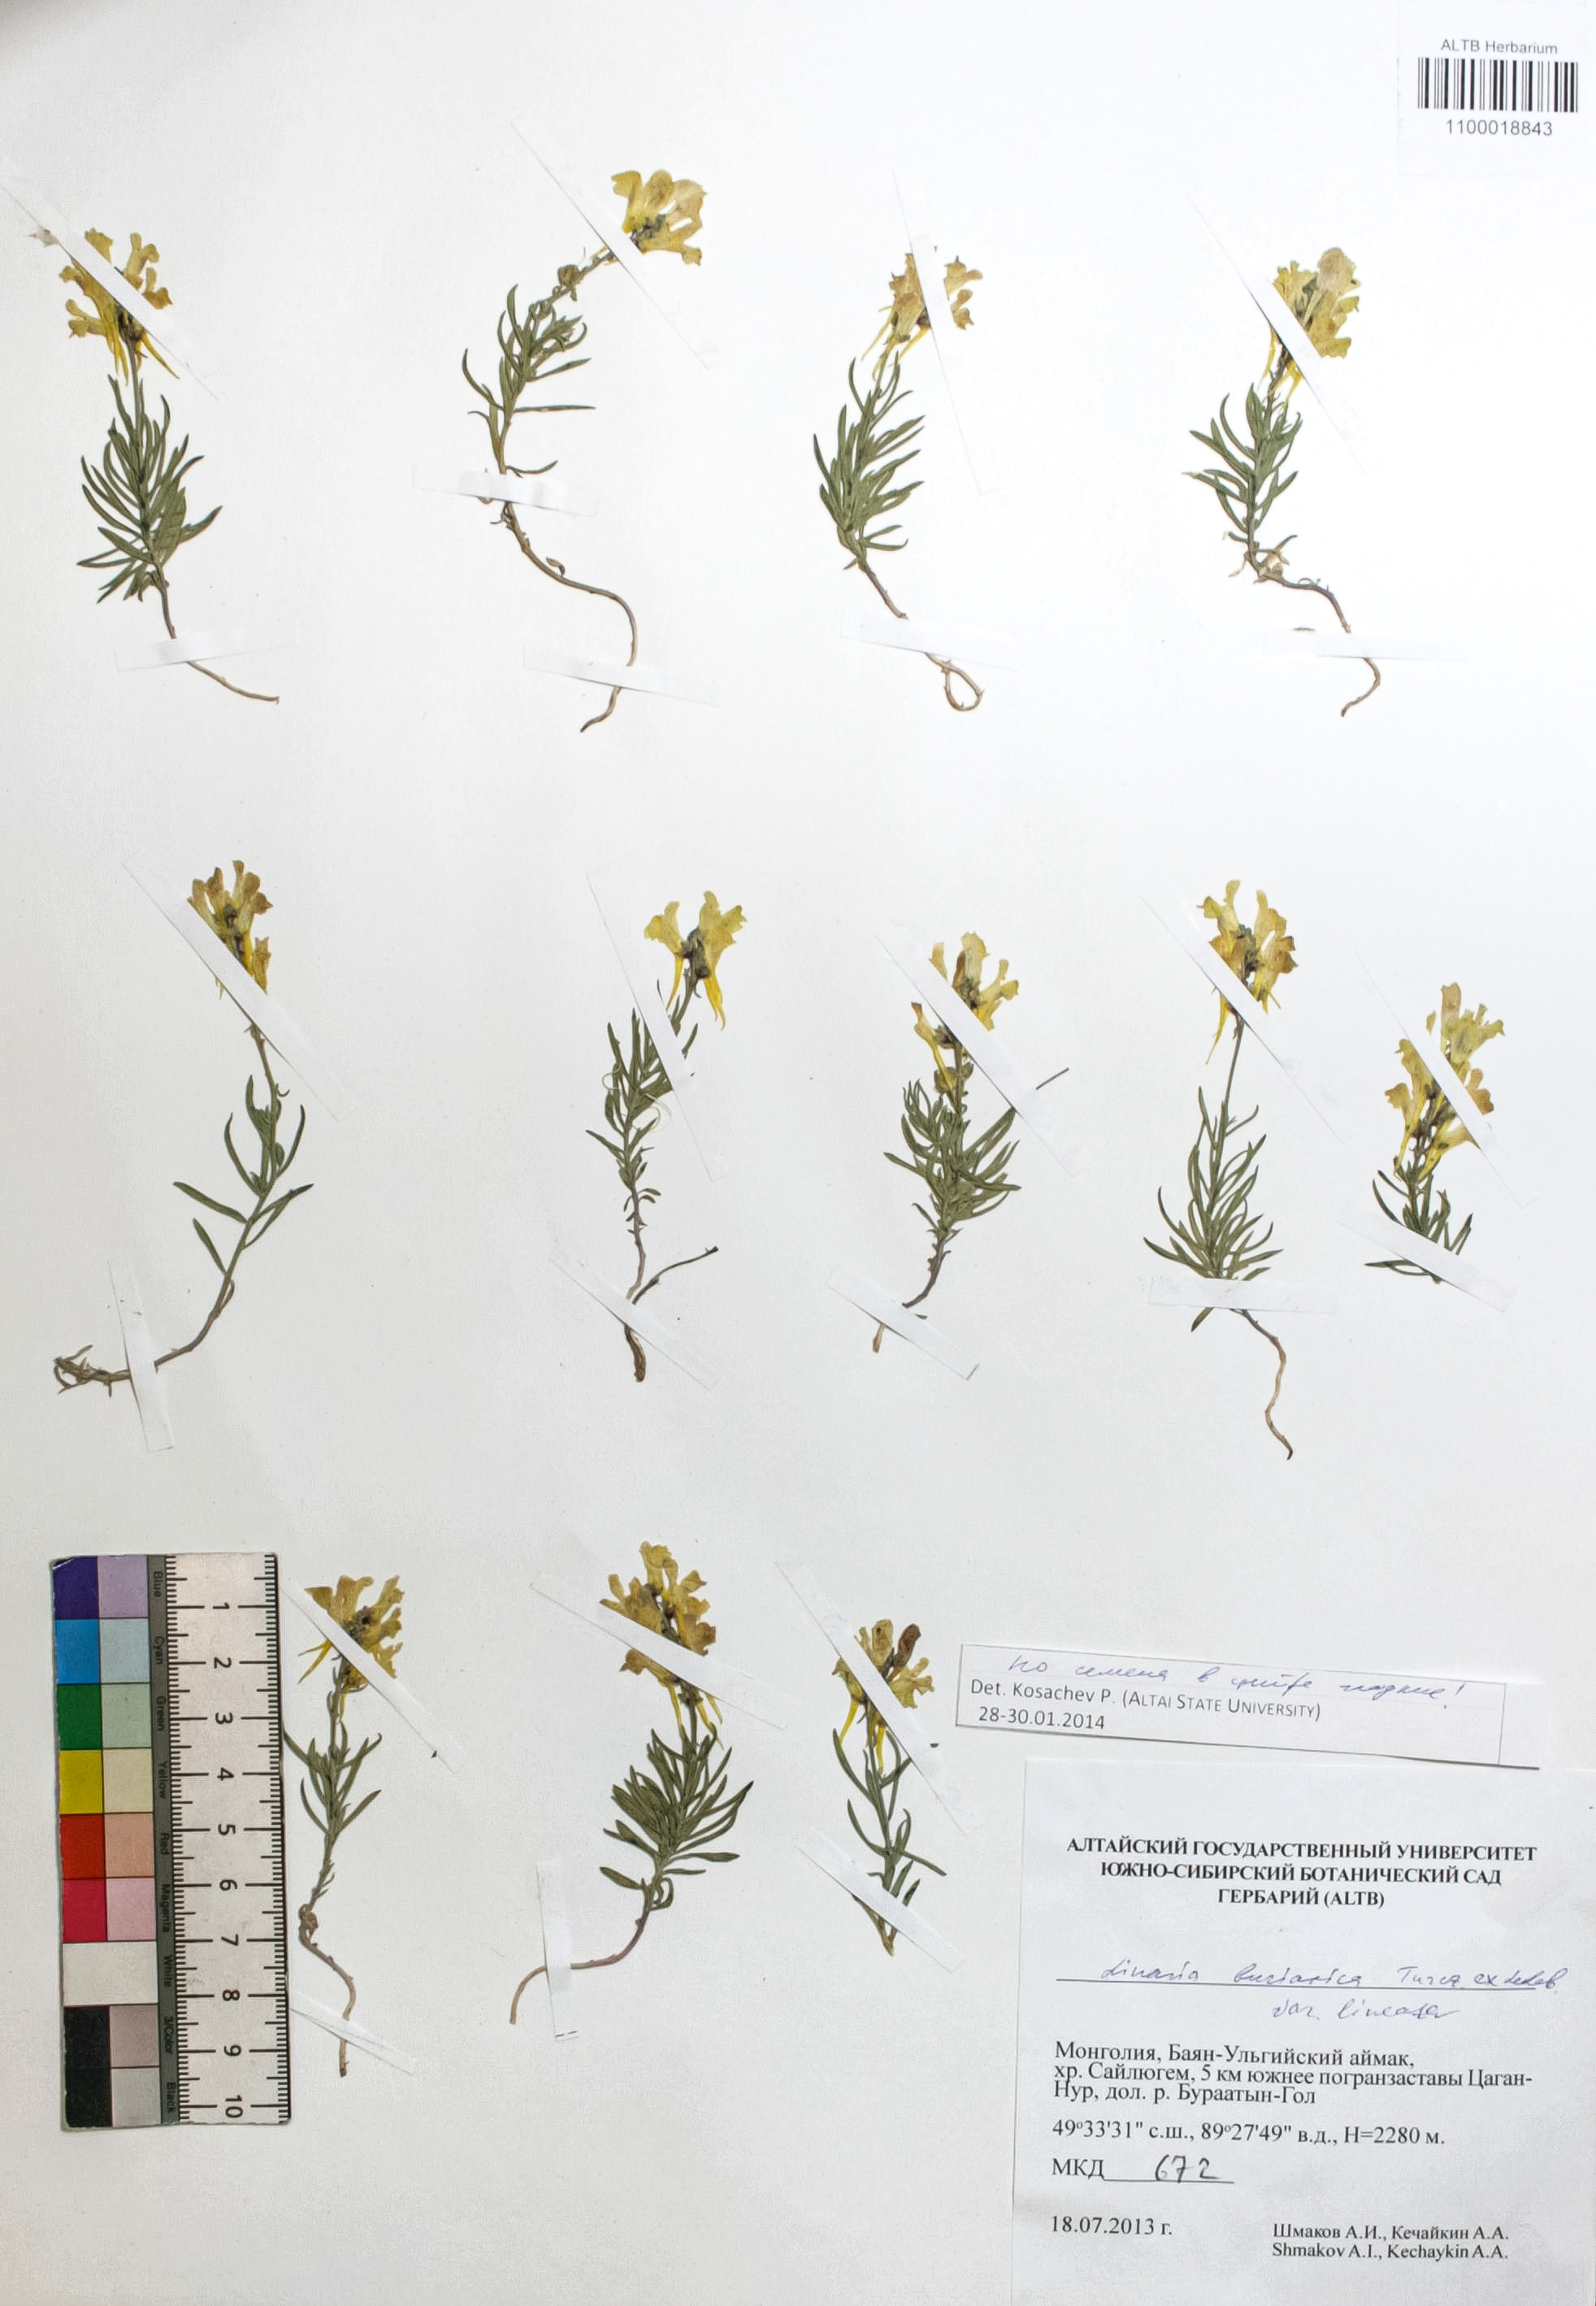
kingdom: Plantae
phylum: Tracheophyta
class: Magnoliopsida
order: Lamiales
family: Plantaginaceae
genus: Linaria
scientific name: Linaria buriatica
